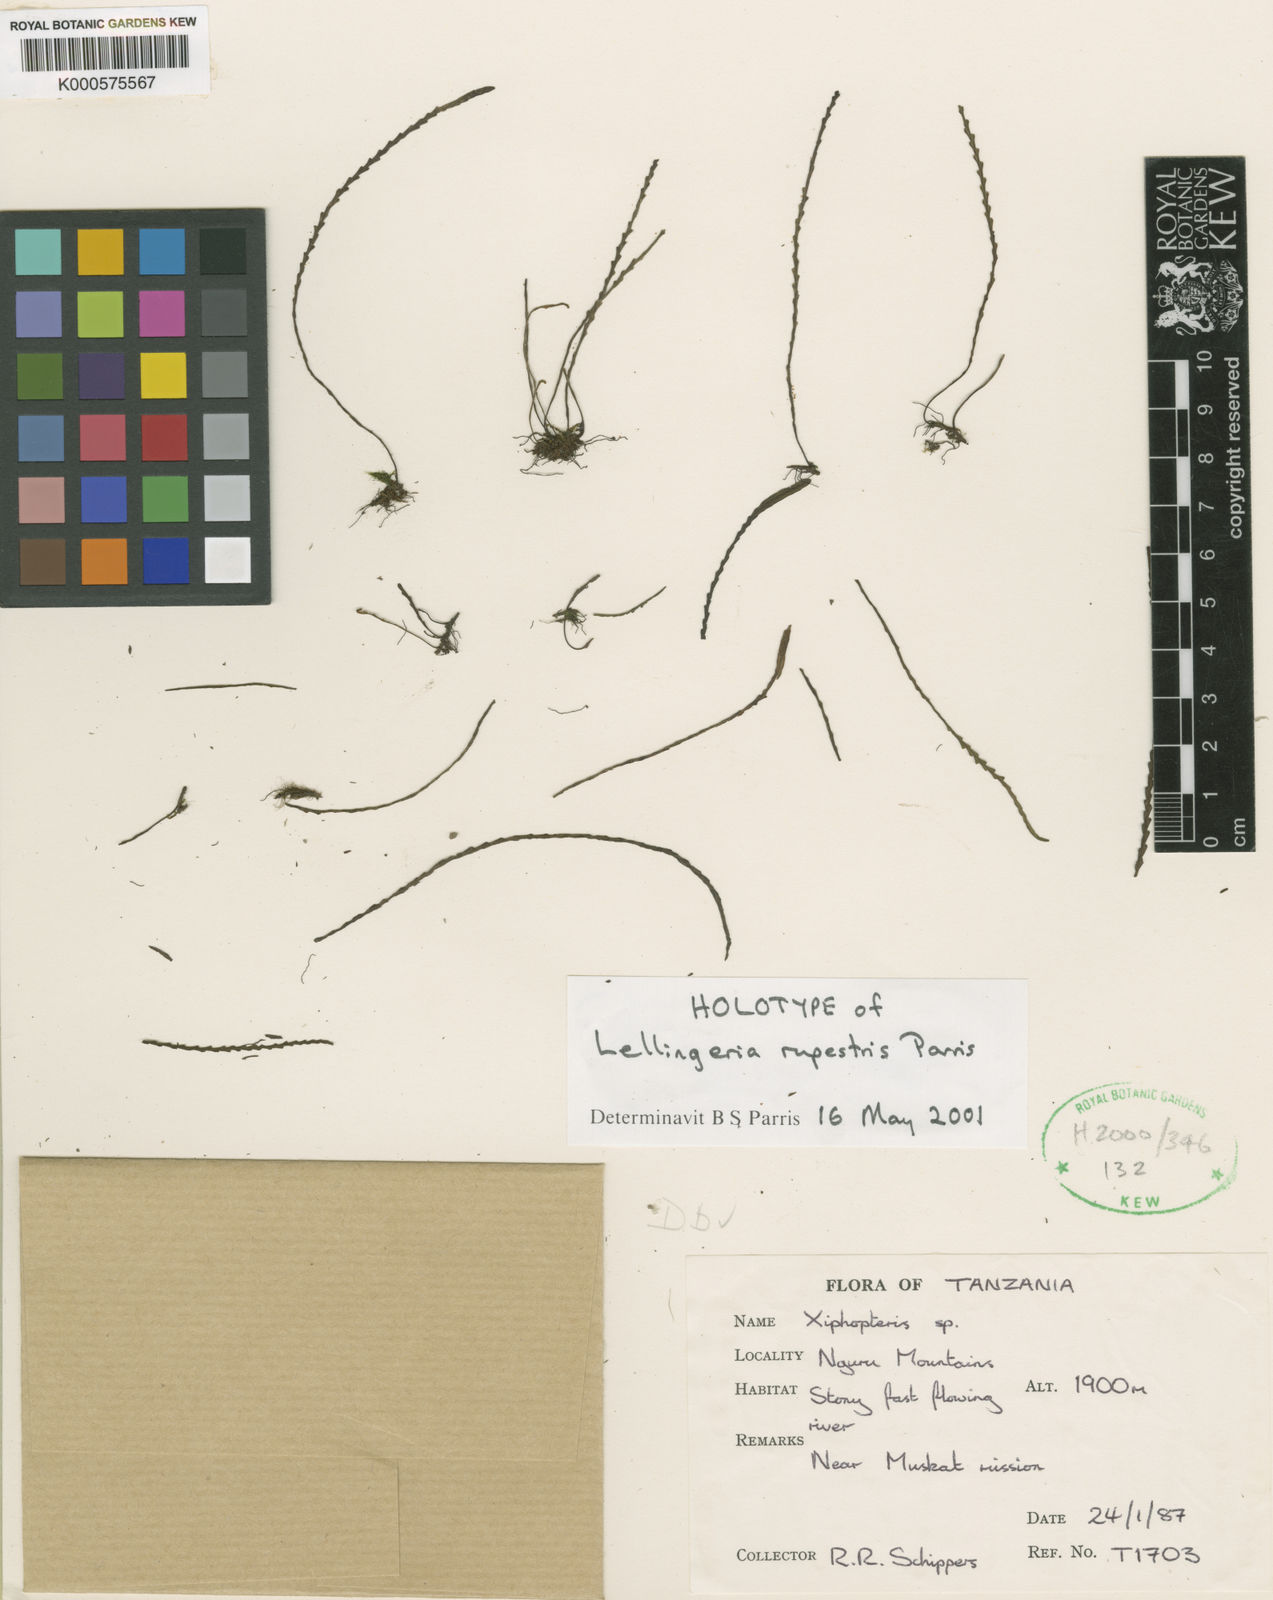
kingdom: Plantae
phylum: Tracheophyta
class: Polypodiopsida
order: Polypodiales
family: Polypodiaceae
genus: Stenogrammitis
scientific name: Stenogrammitis rupestris
